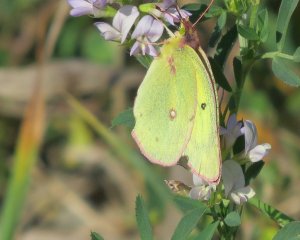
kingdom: Animalia
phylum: Arthropoda
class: Insecta
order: Lepidoptera
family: Pieridae
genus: Colias
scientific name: Colias philodice
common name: Clouded Sulphur
